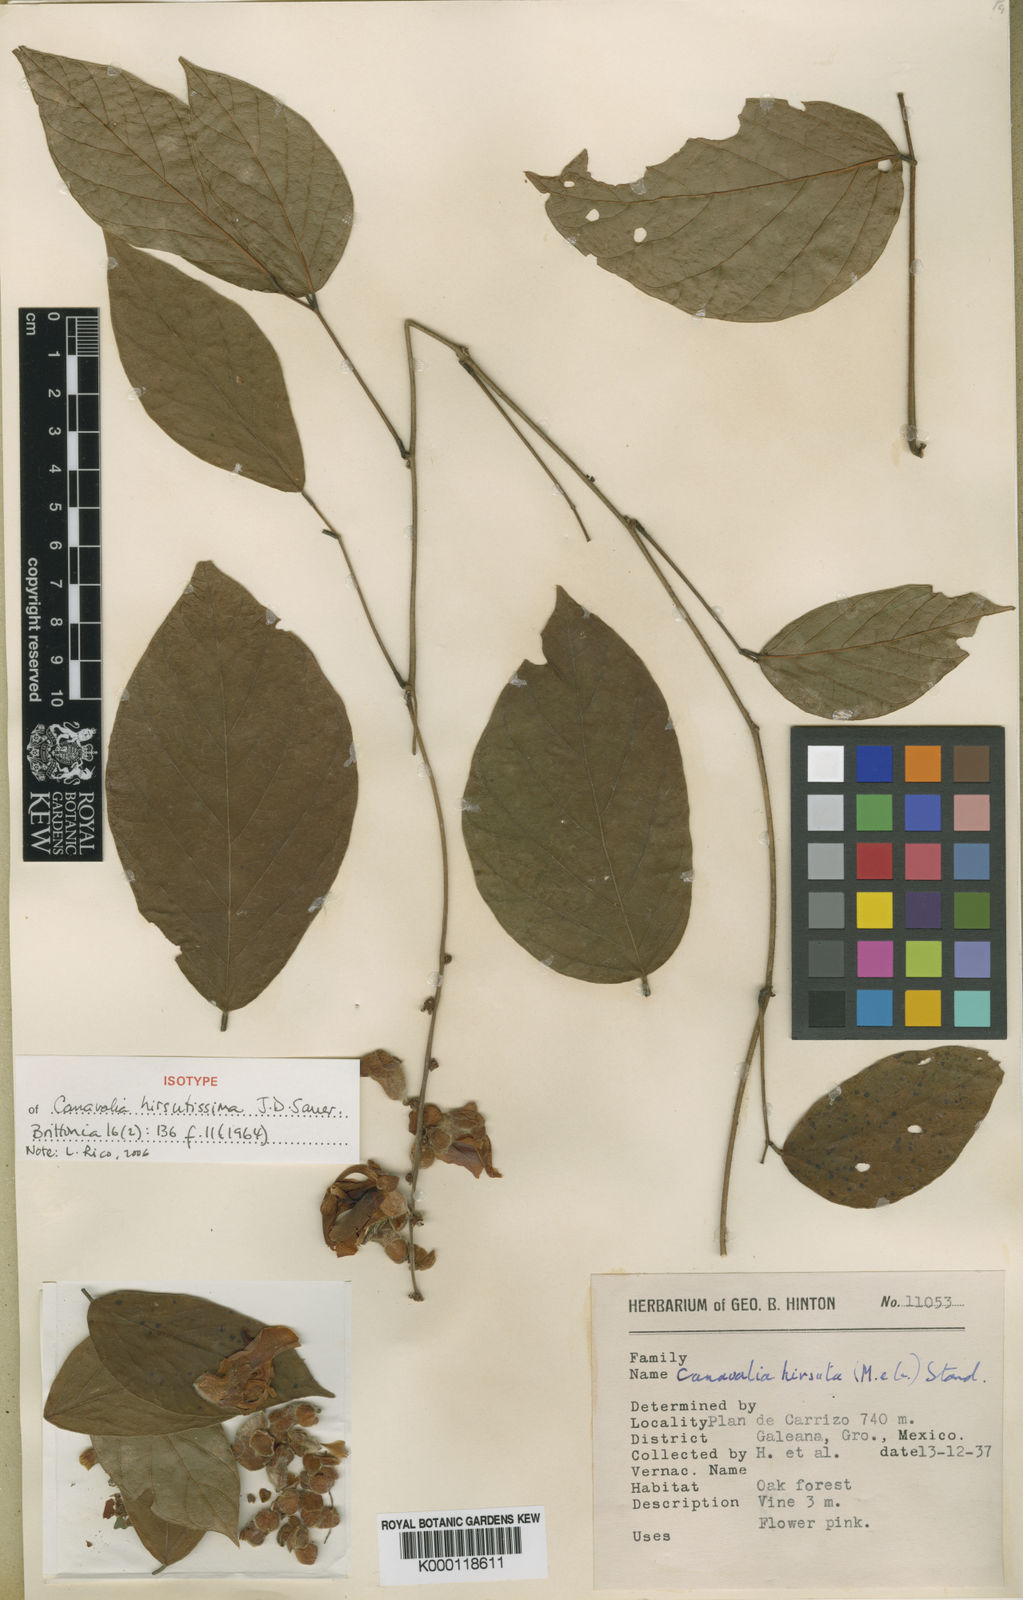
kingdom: Plantae
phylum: Tracheophyta
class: Magnoliopsida
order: Fabales
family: Fabaceae
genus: Canavalia
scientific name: Canavalia hirsutissima
